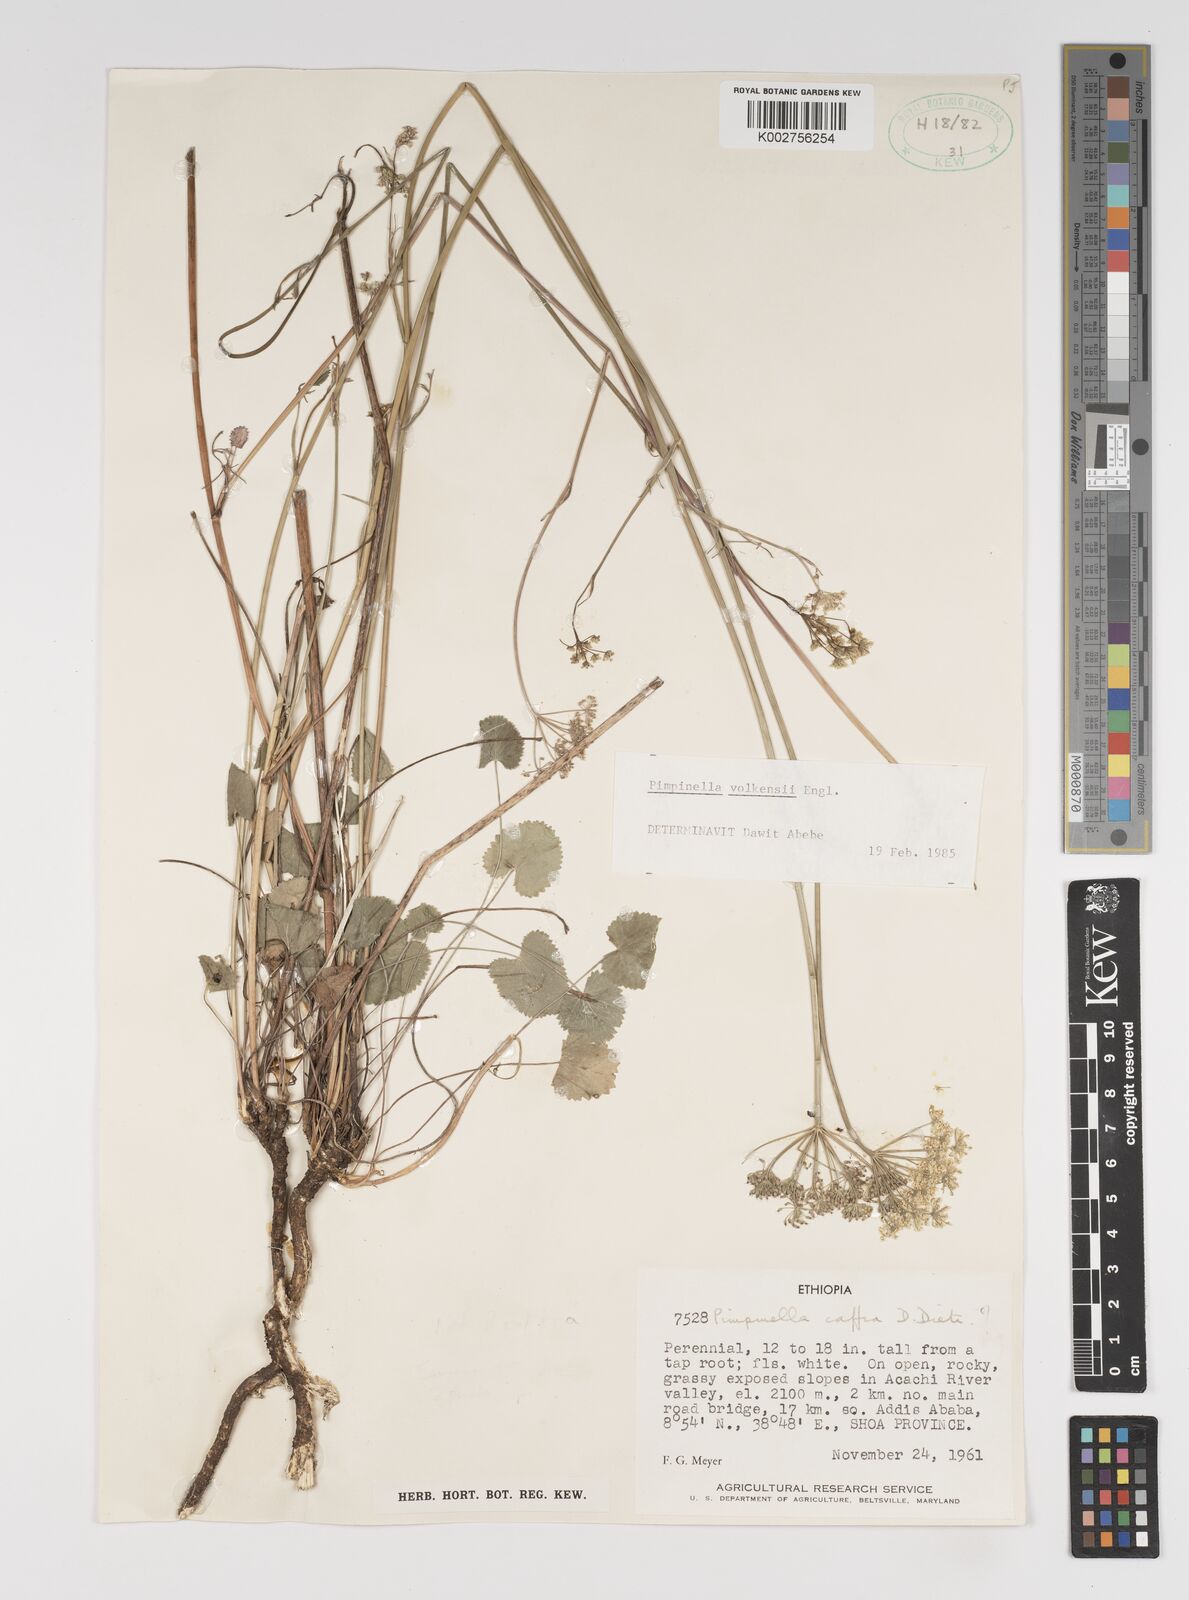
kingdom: Plantae
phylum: Tracheophyta
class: Magnoliopsida
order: Apiales
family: Apiaceae
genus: Pimpinella
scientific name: Pimpinella hirtella
